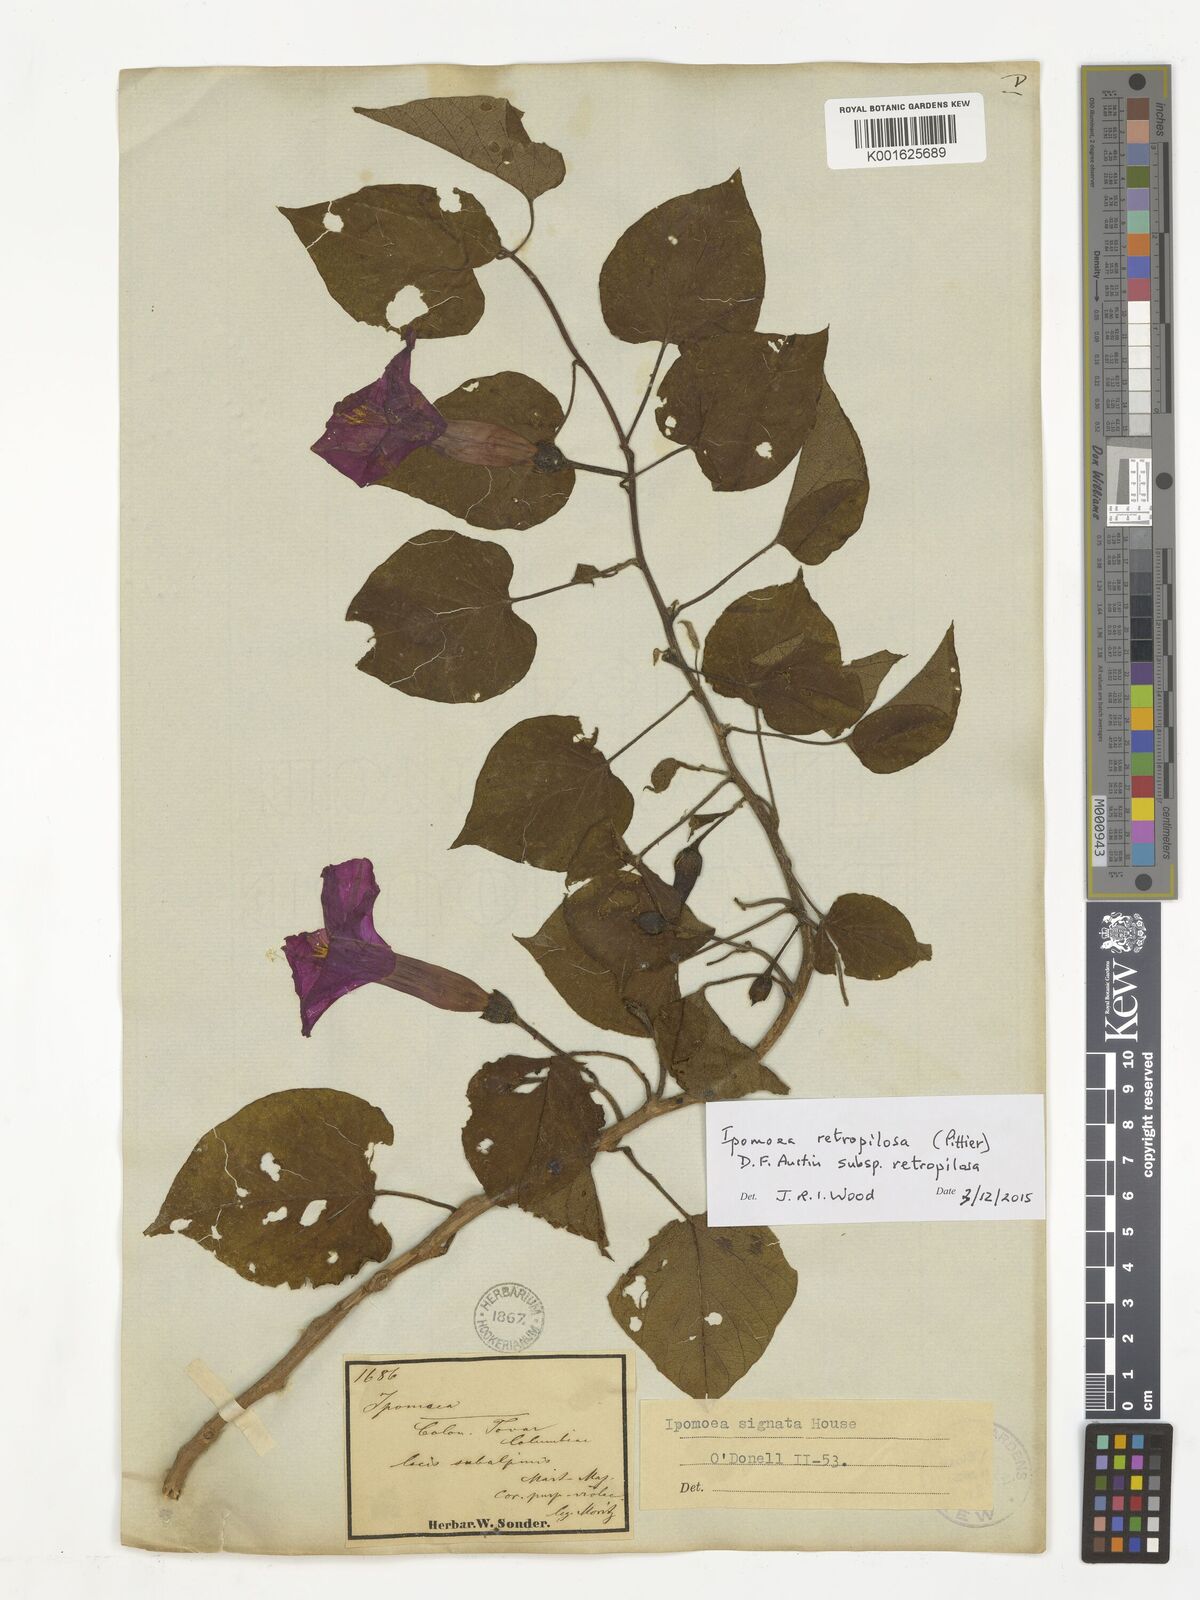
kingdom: Plantae
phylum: Tracheophyta
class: Magnoliopsida
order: Solanales
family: Convolvulaceae
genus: Ipomoea
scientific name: Ipomoea retropilosa
